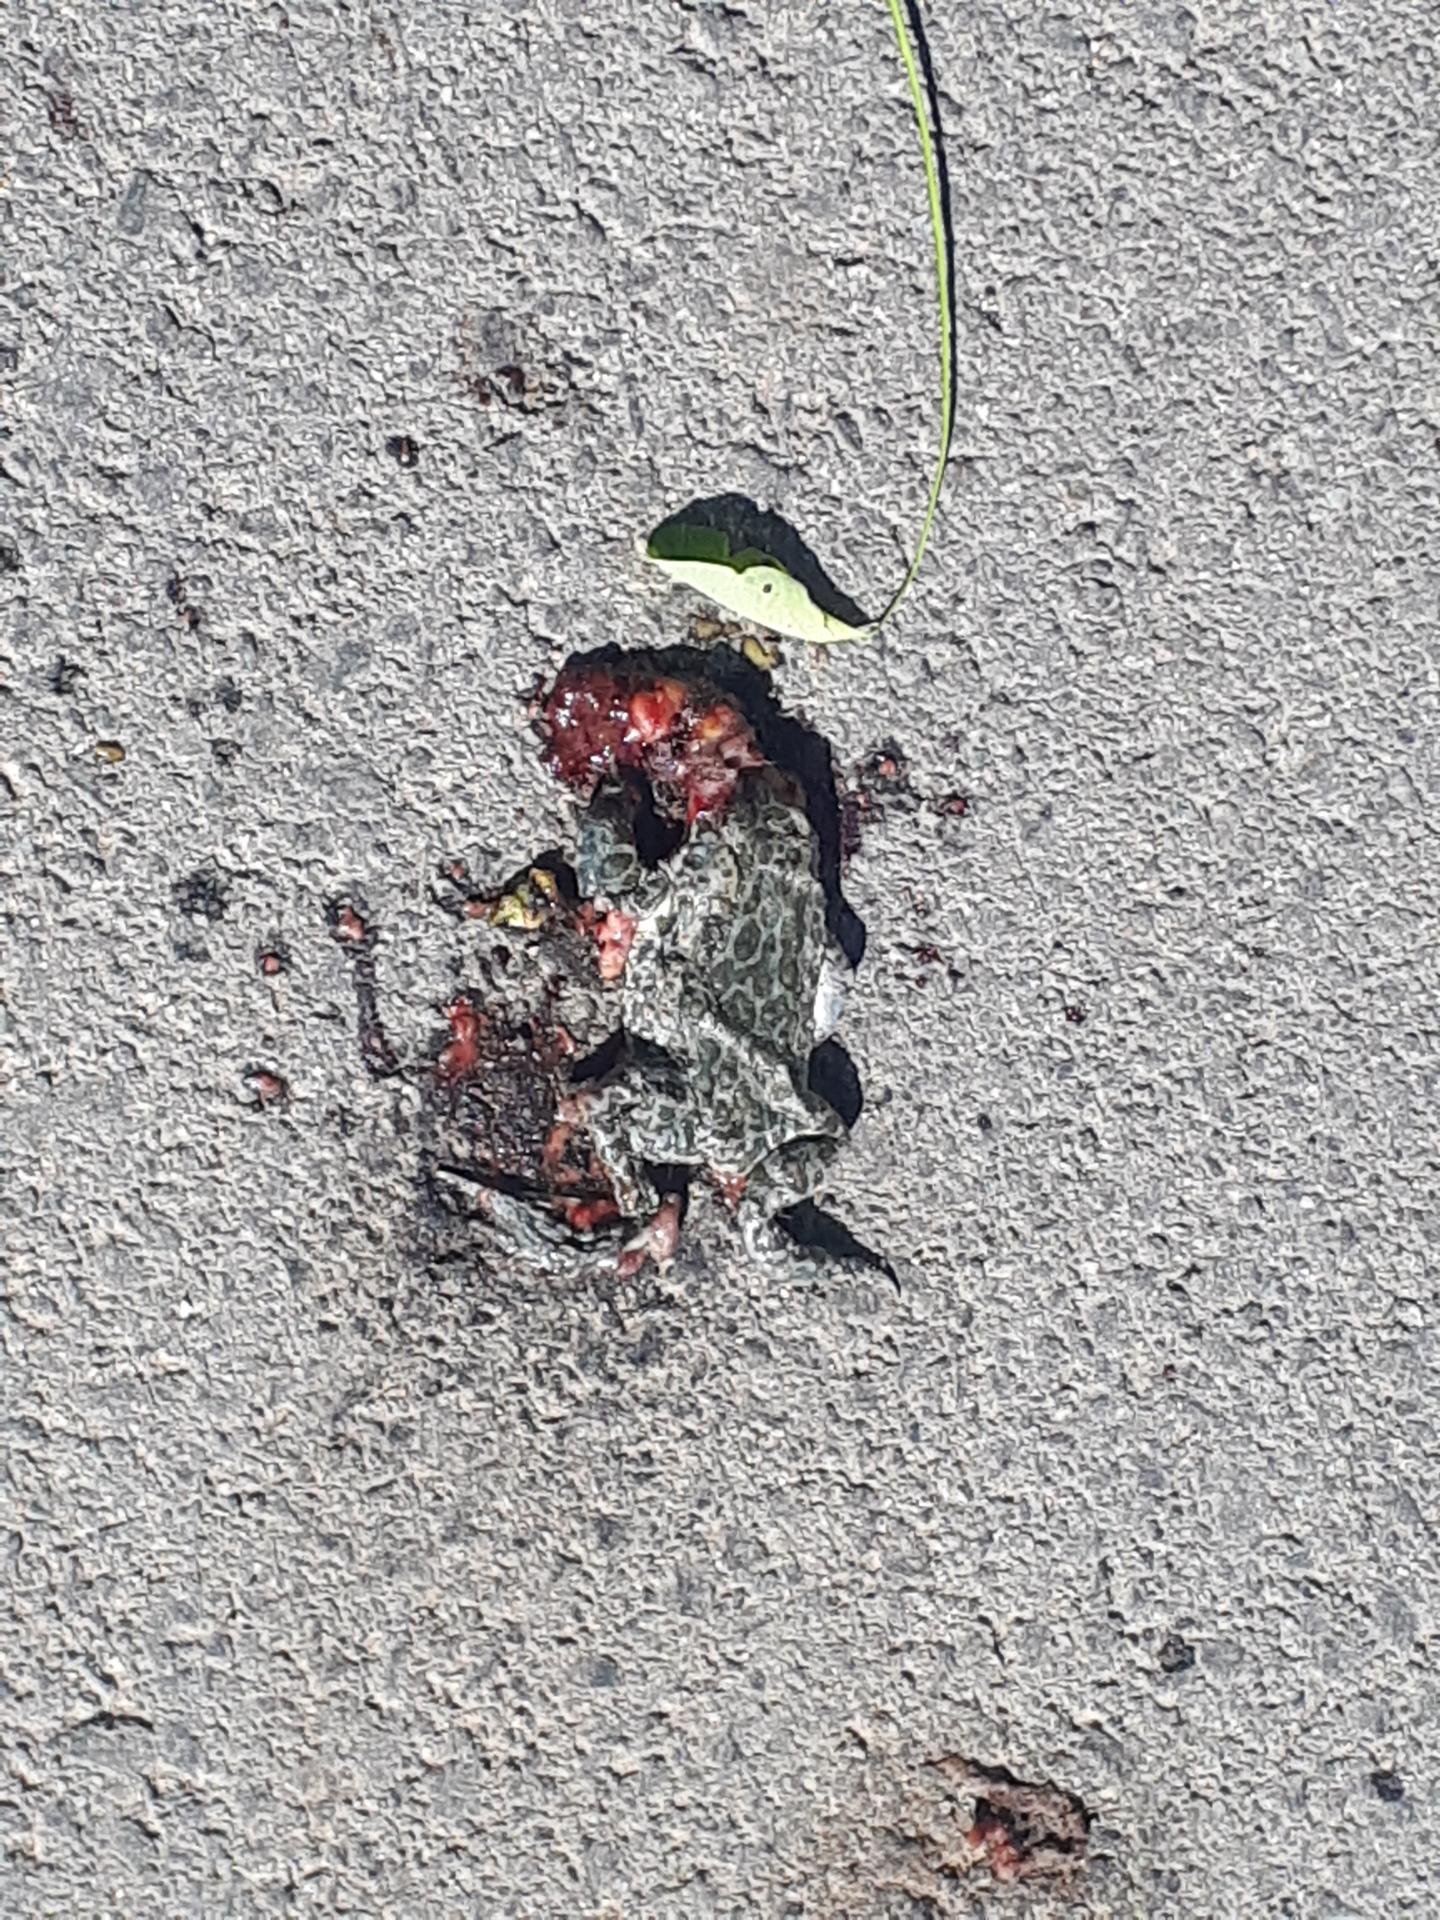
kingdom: Animalia
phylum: Chordata
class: Amphibia
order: Anura
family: Bufonidae
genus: Bufotes
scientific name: Bufotes viridis
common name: European green toad
